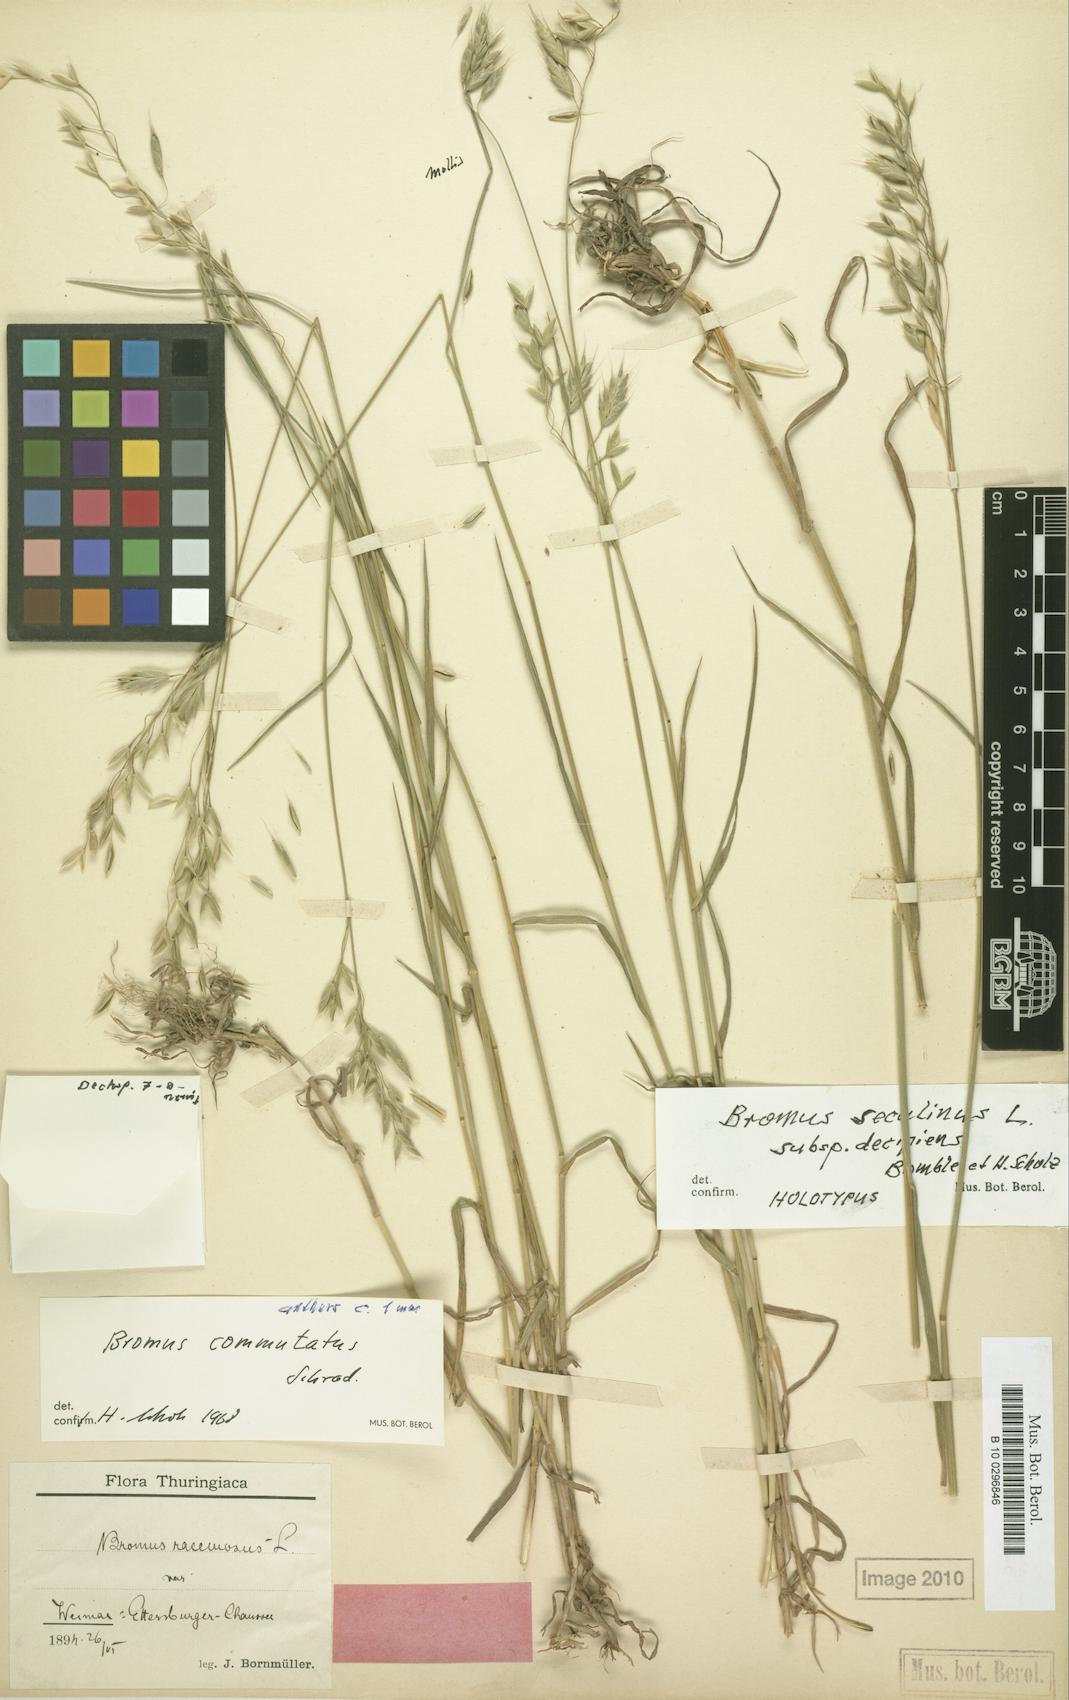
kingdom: Plantae
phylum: Tracheophyta
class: Liliopsida
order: Poales
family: Poaceae
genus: Bromus
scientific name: Bromus commutatus
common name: Meadow brome
